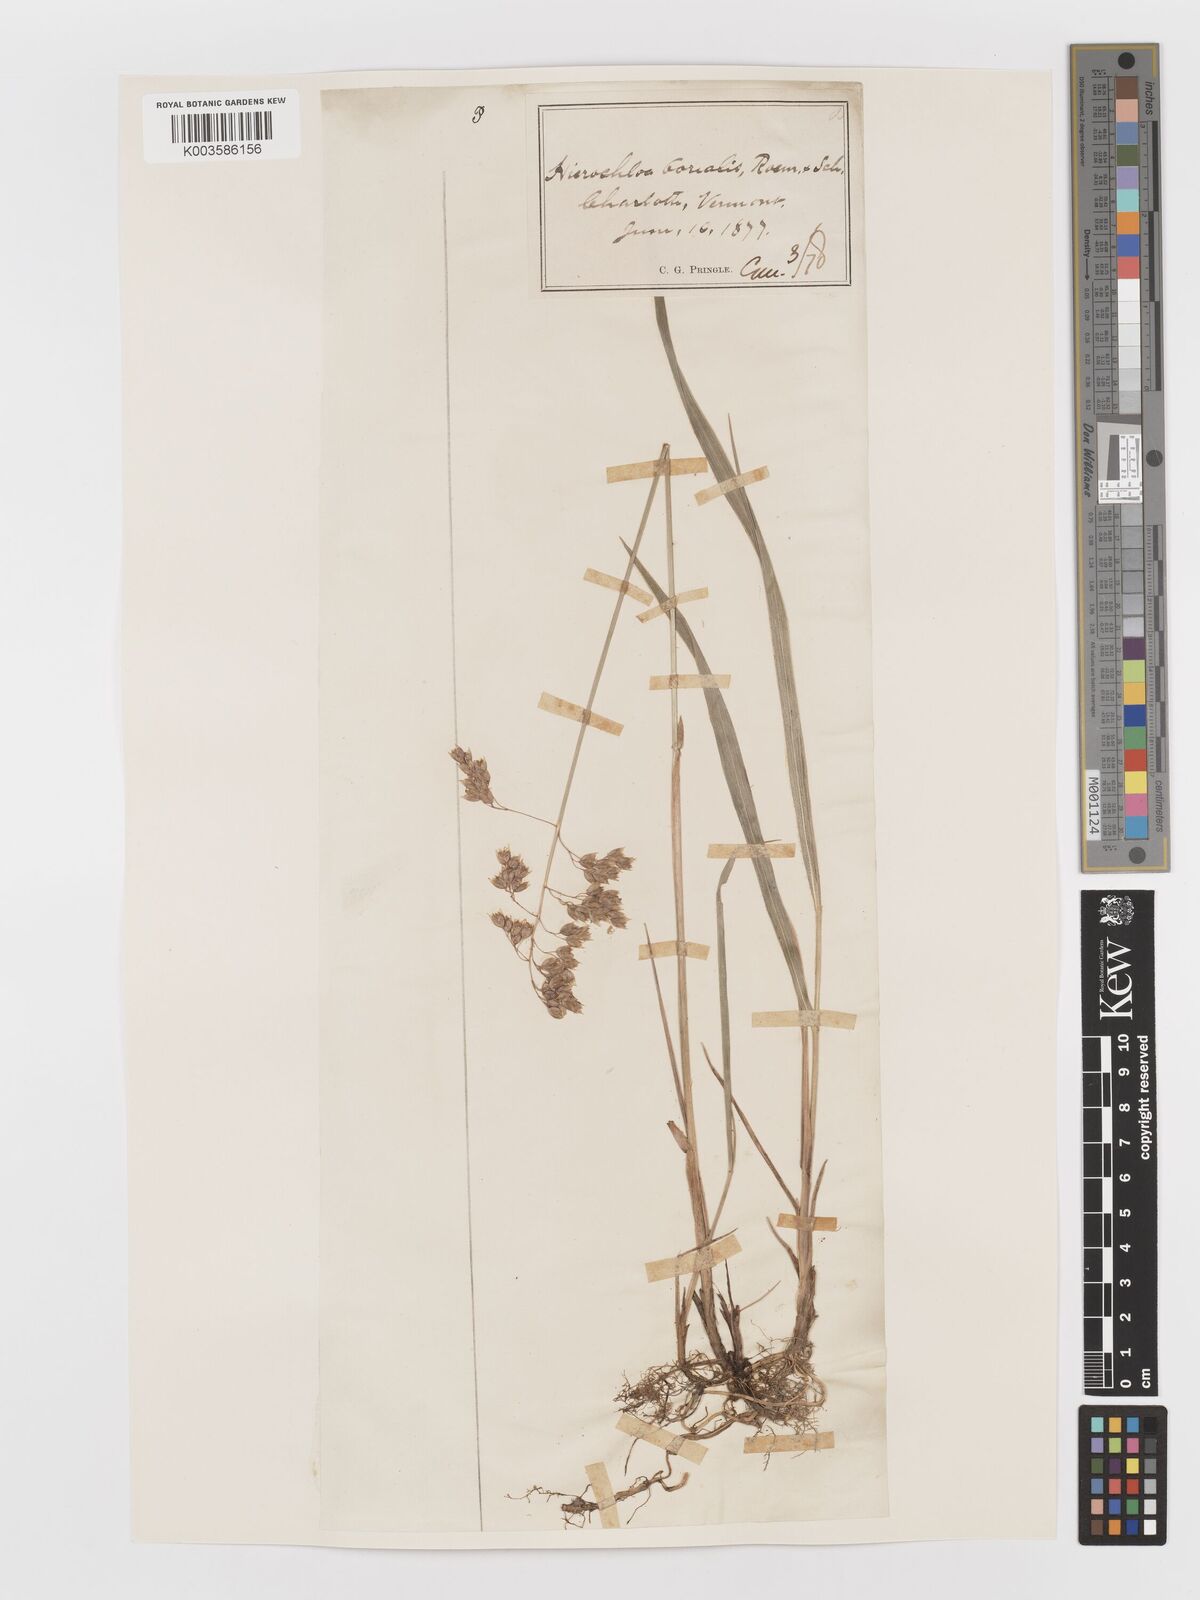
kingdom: Plantae
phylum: Tracheophyta
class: Liliopsida
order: Poales
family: Poaceae
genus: Anthoxanthum
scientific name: Anthoxanthum nitens
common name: Holy grass
